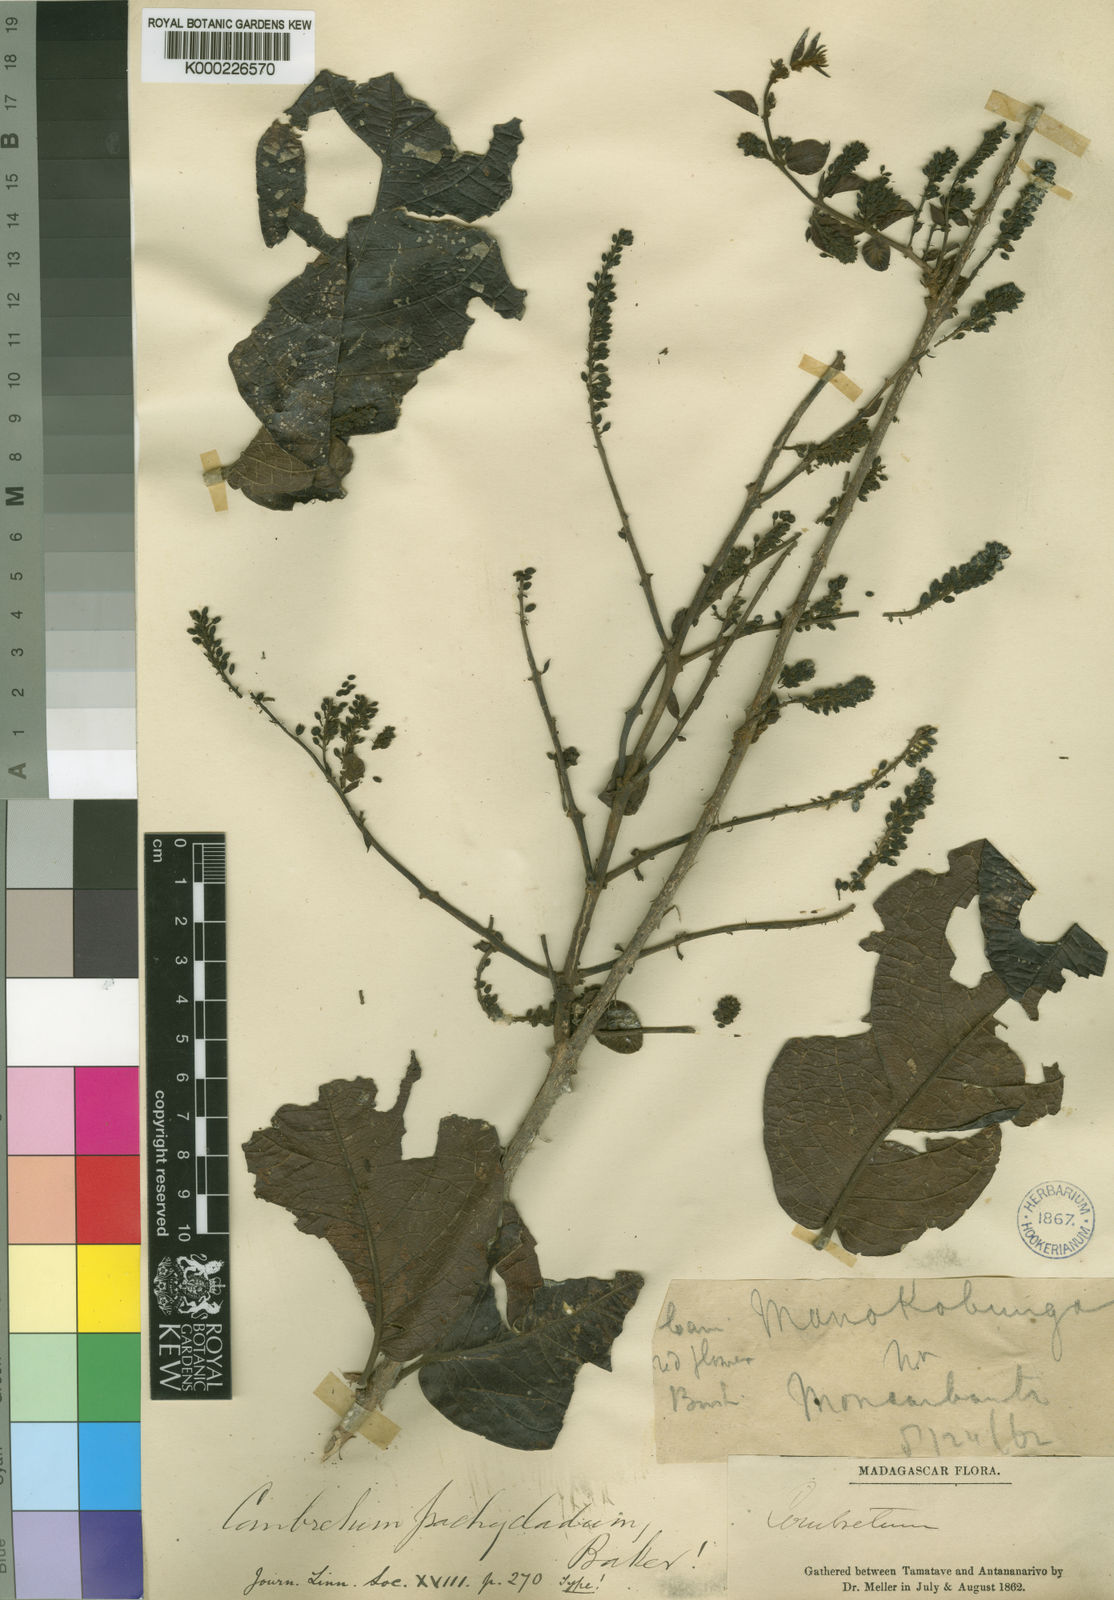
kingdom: Plantae
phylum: Tracheophyta
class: Magnoliopsida
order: Myrtales
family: Combretaceae
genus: Combretum
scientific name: Combretum
